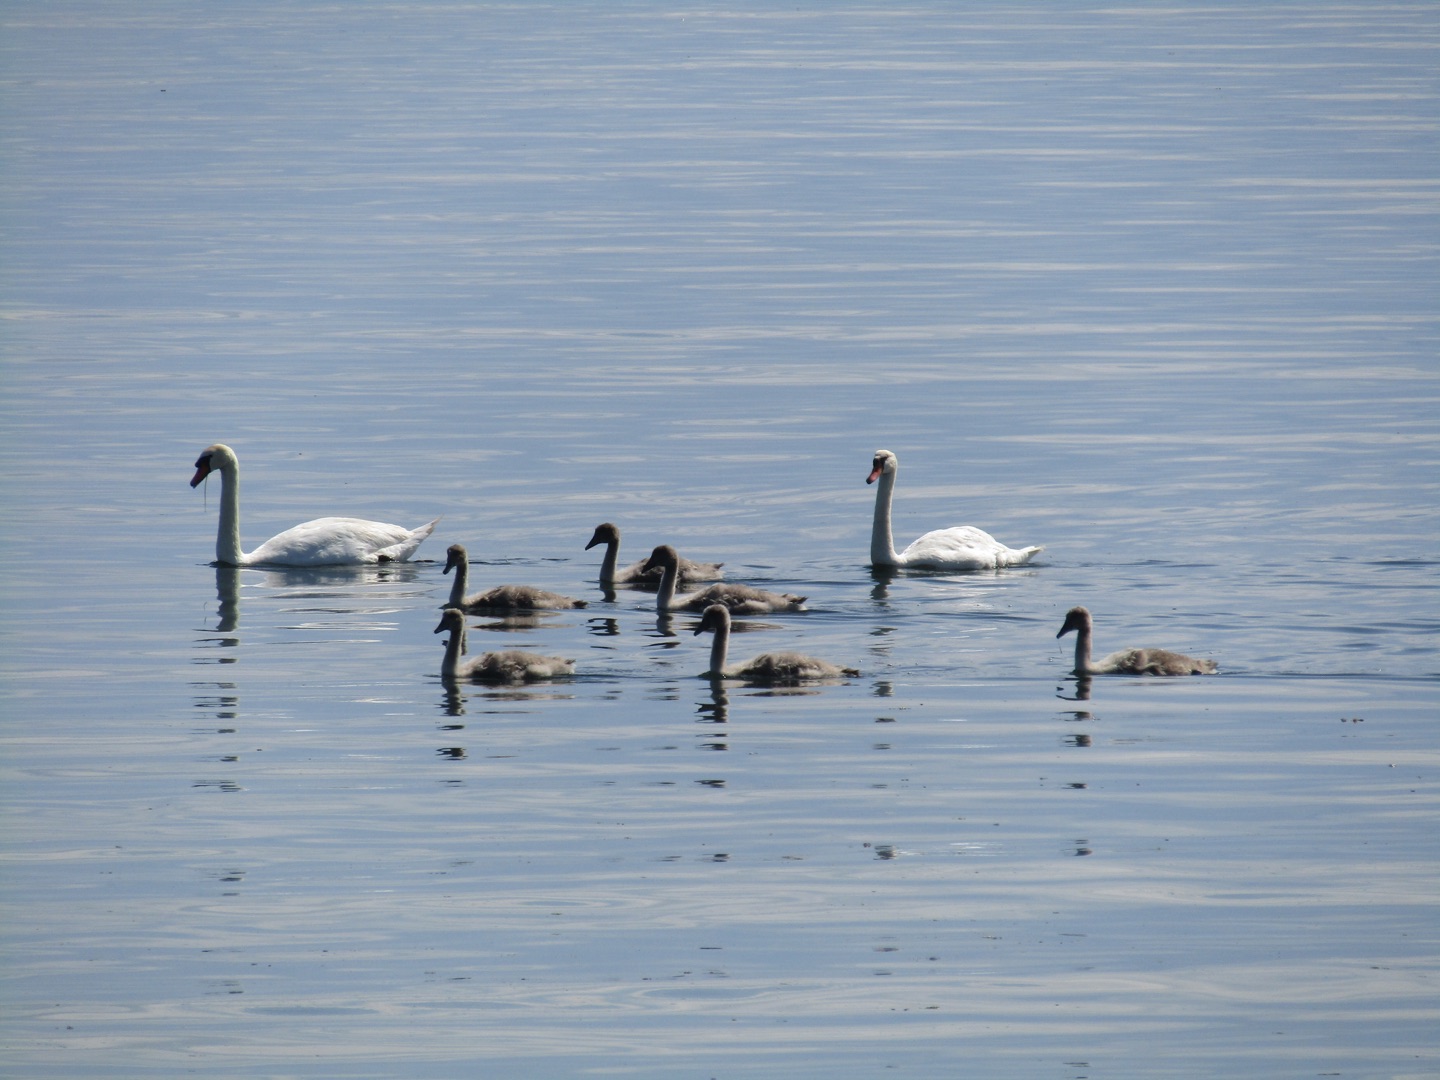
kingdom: Animalia
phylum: Chordata
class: Aves
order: Anseriformes
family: Anatidae
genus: Cygnus
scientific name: Cygnus olor
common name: Knopsvane
